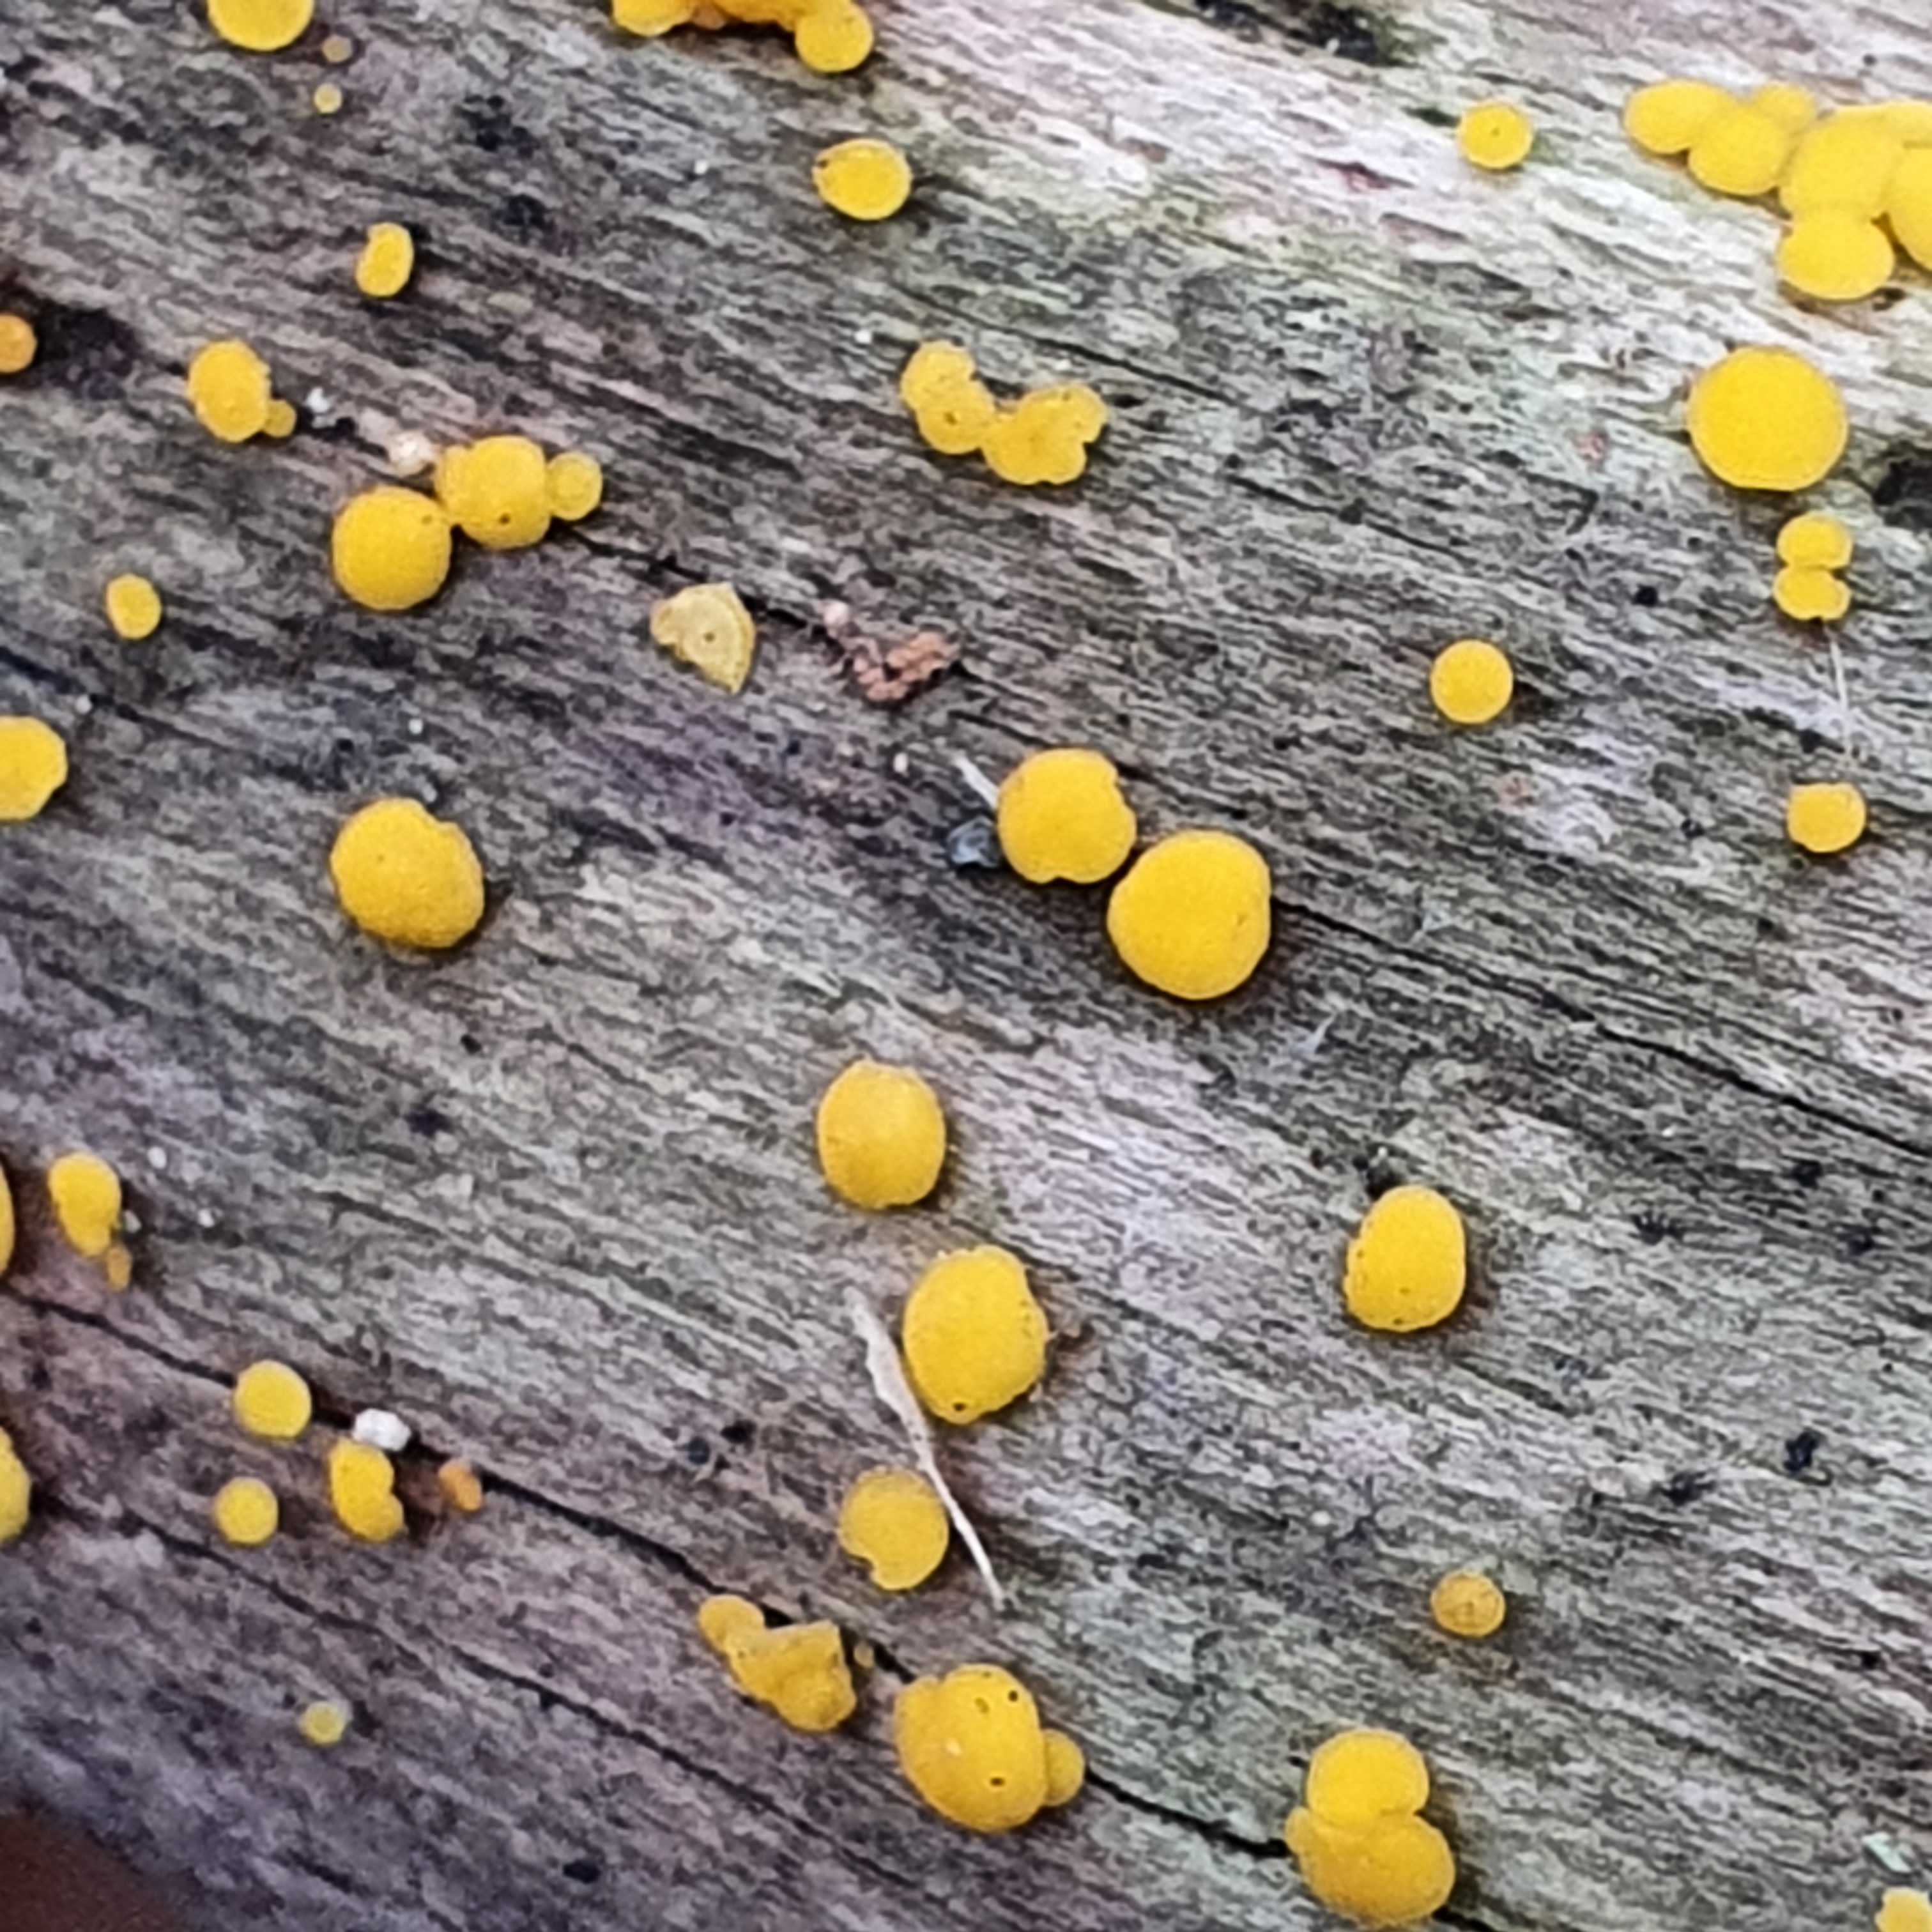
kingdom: Fungi
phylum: Ascomycota
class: Leotiomycetes
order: Helotiales
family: Pezizellaceae
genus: Calycina
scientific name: Calycina citrina
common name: almindelig gulskive
